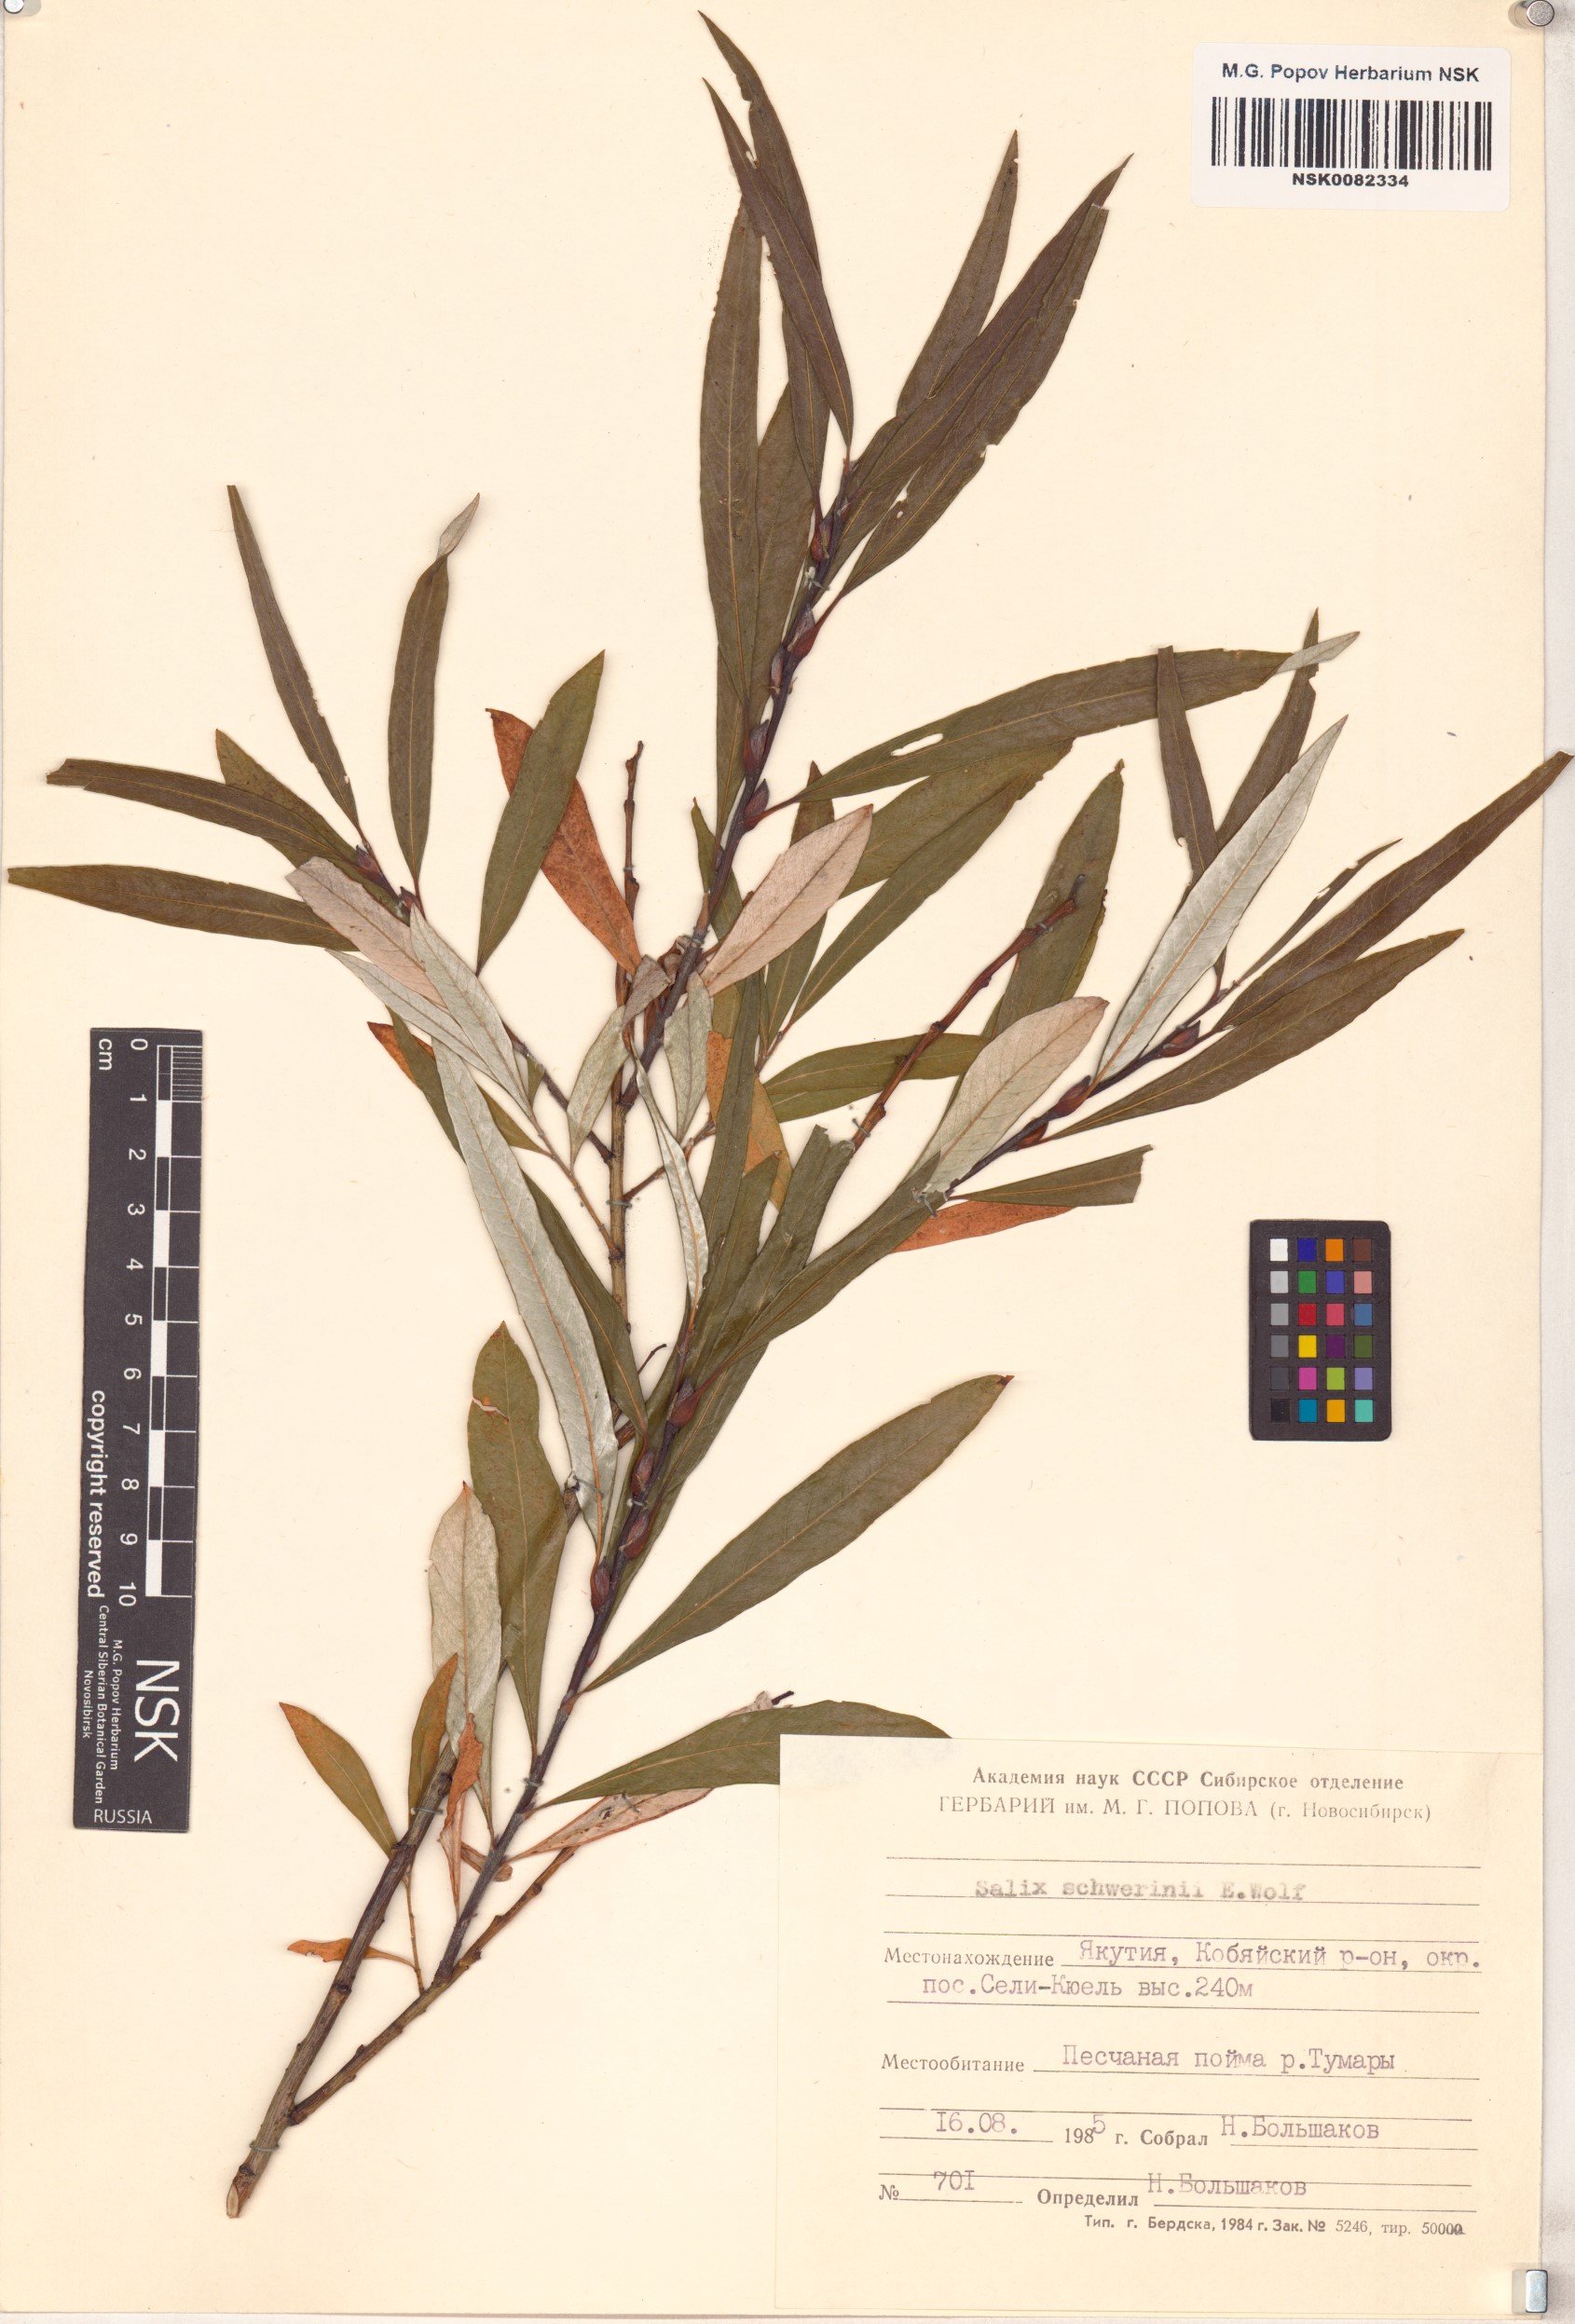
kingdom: Plantae
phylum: Tracheophyta
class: Magnoliopsida
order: Malpighiales
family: Salicaceae
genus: Salix
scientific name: Salix schwerinii
